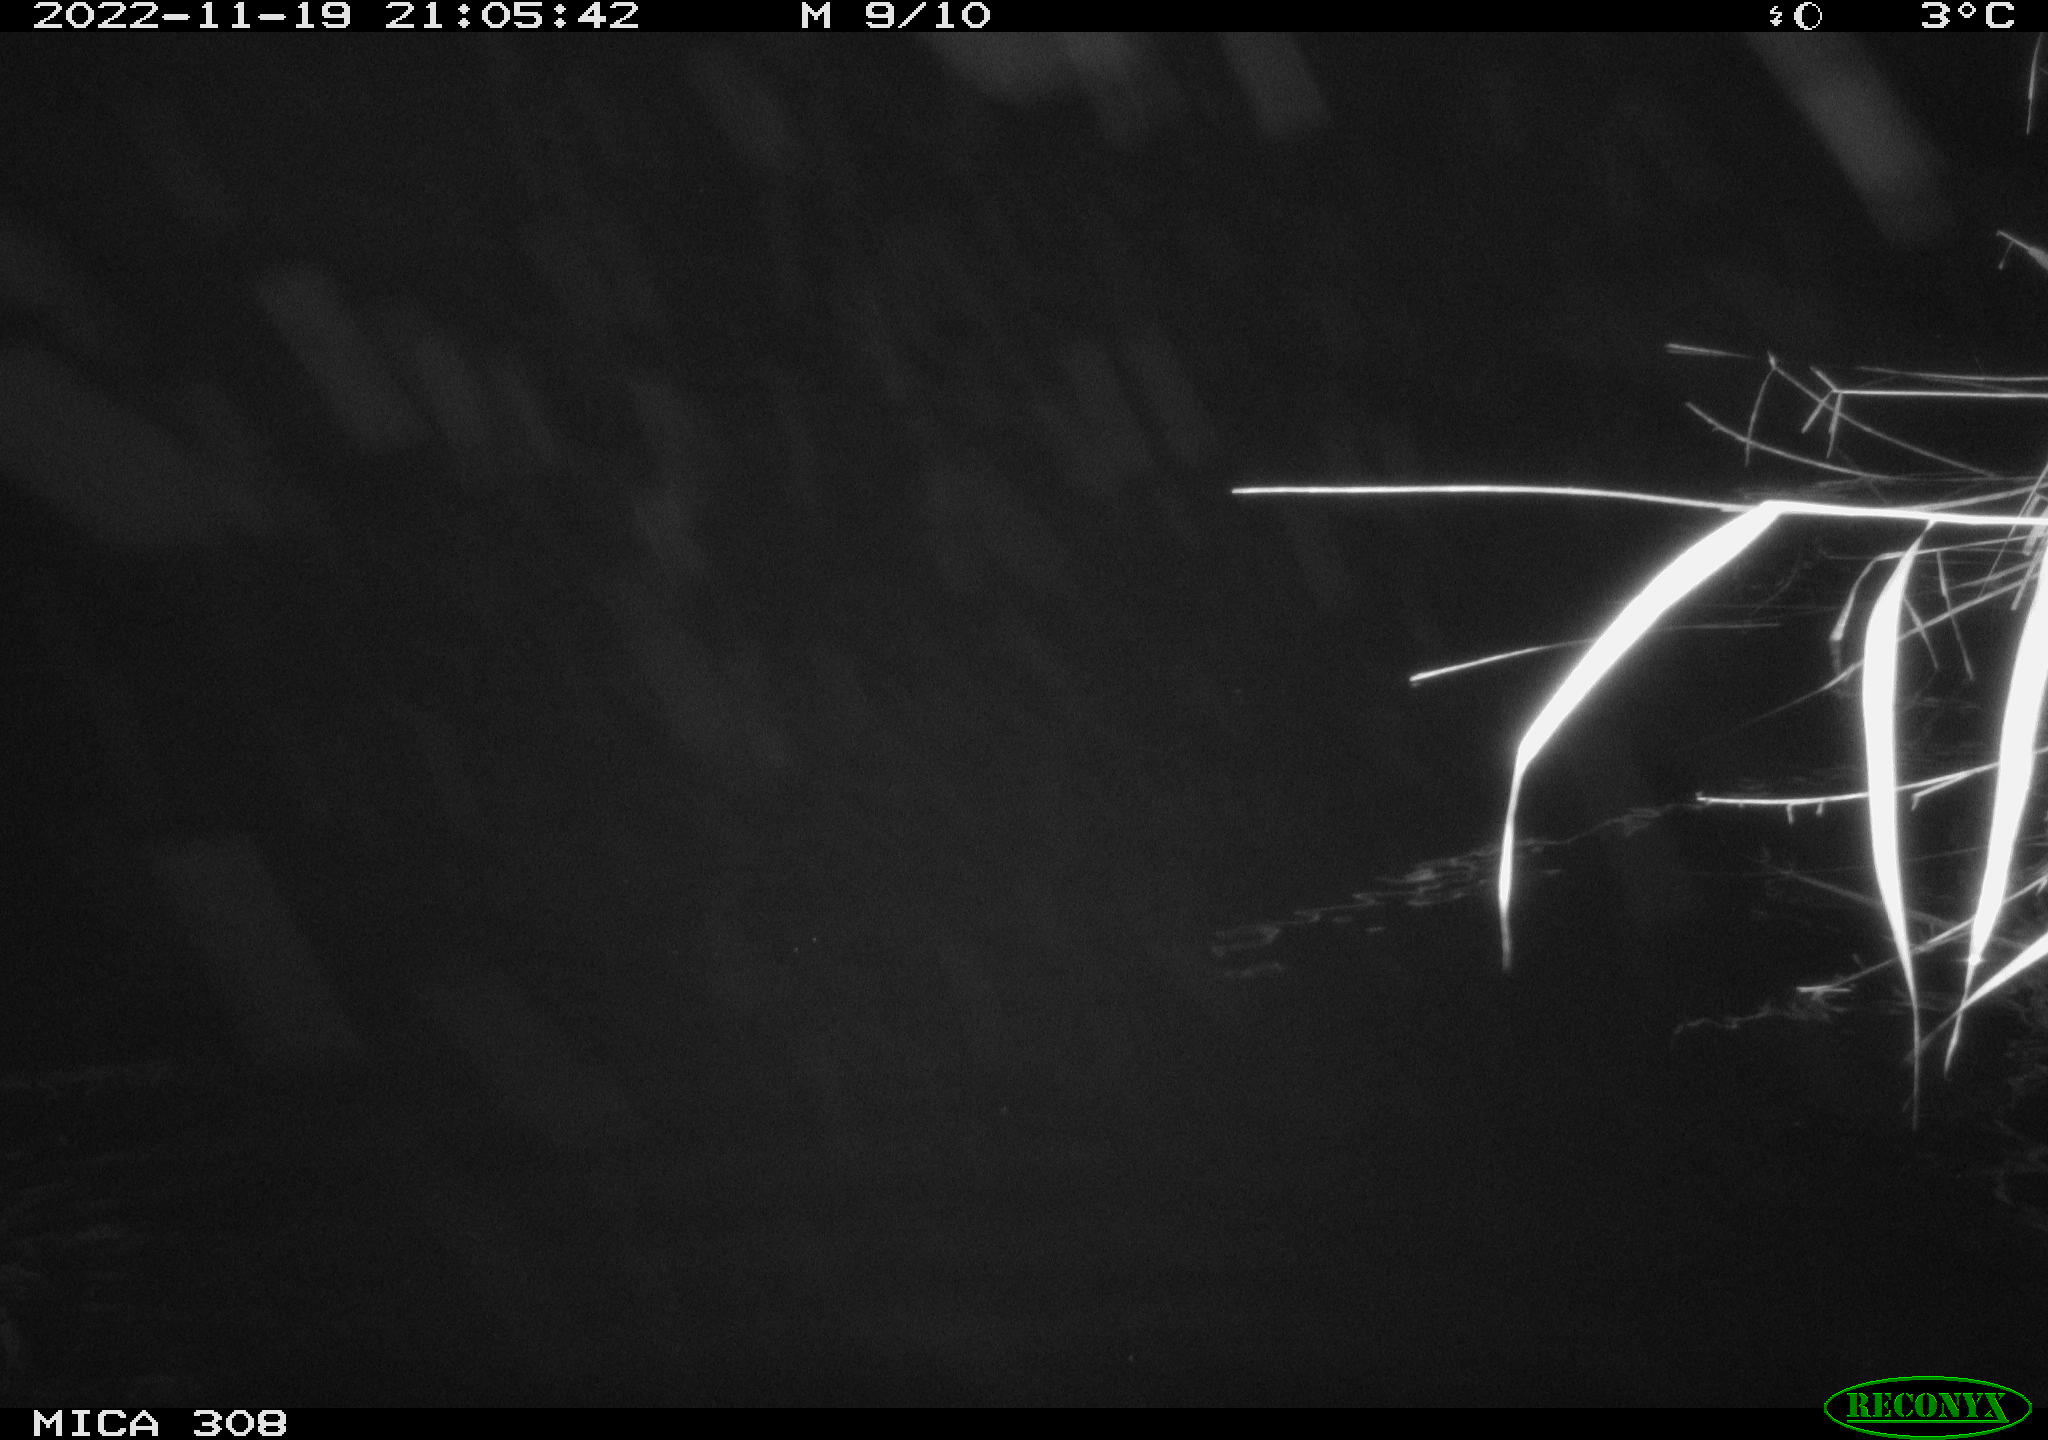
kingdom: Animalia
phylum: Chordata
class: Mammalia
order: Rodentia
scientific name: Rodentia
